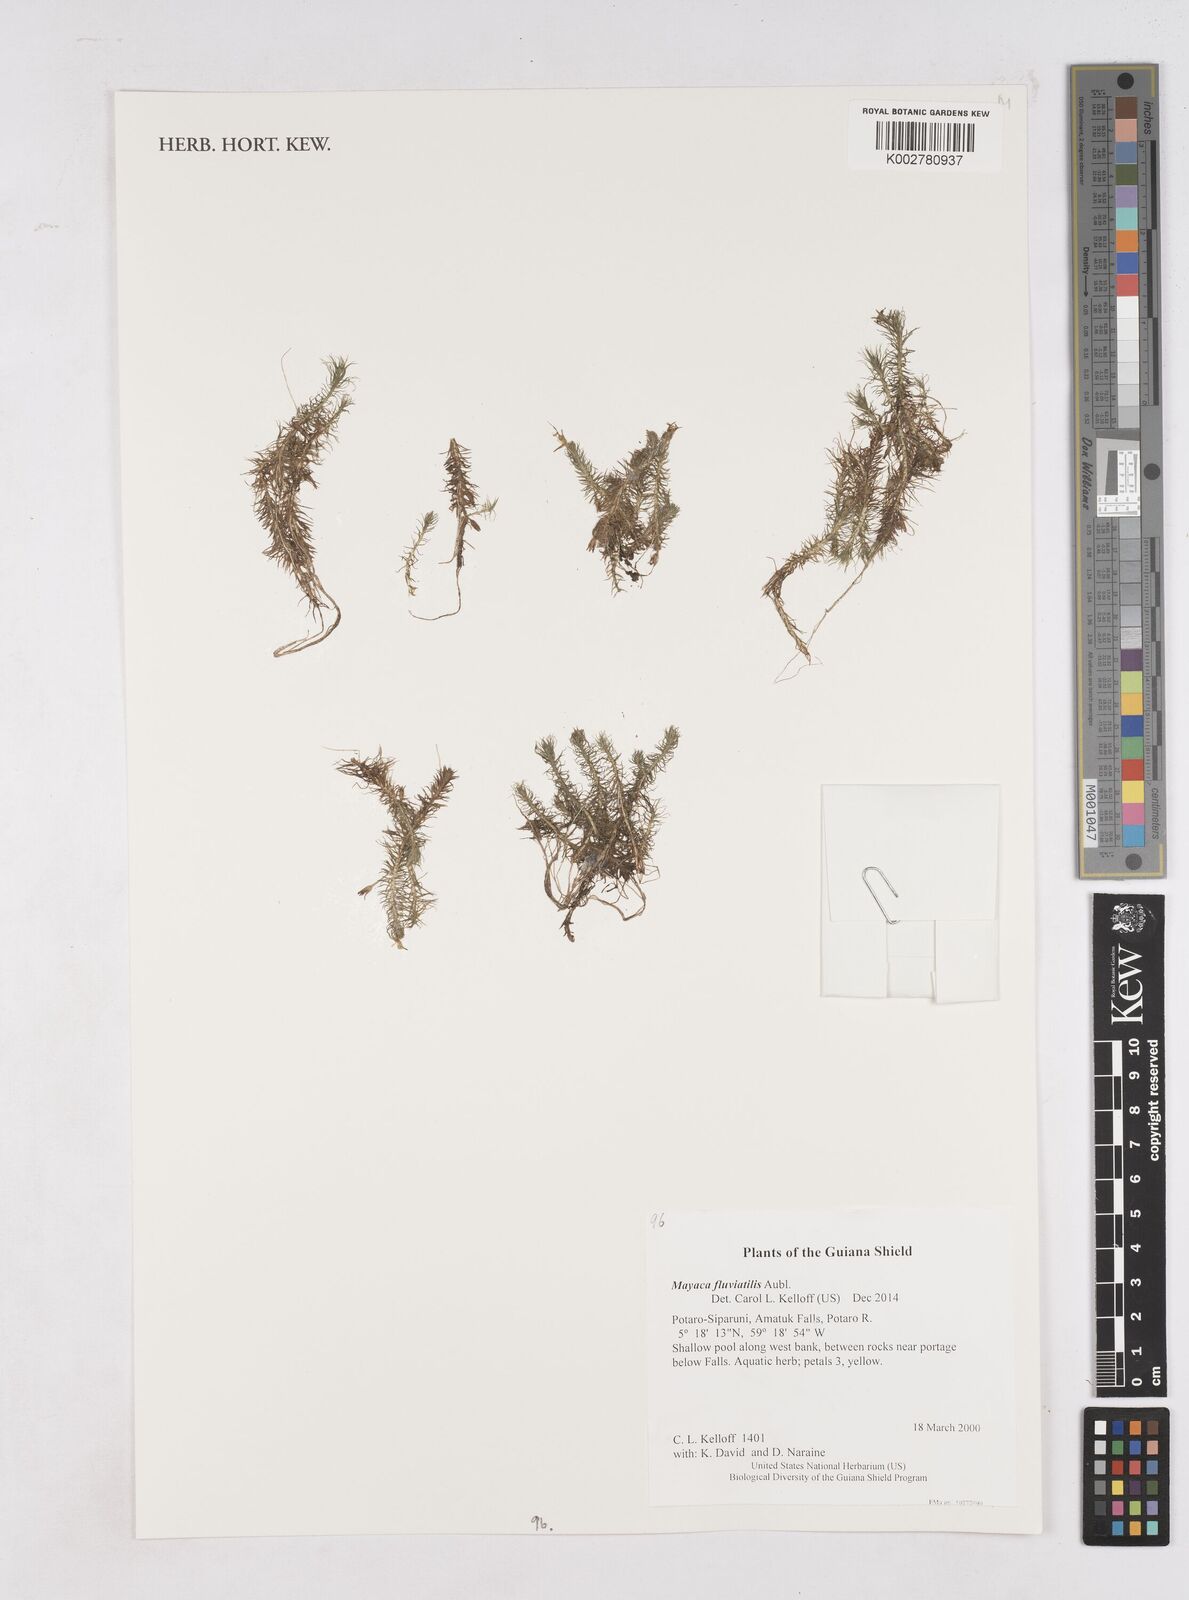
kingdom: Plantae
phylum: Tracheophyta
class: Liliopsida
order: Poales
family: Mayacaceae
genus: Mayaca
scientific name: Mayaca fluviatilis
